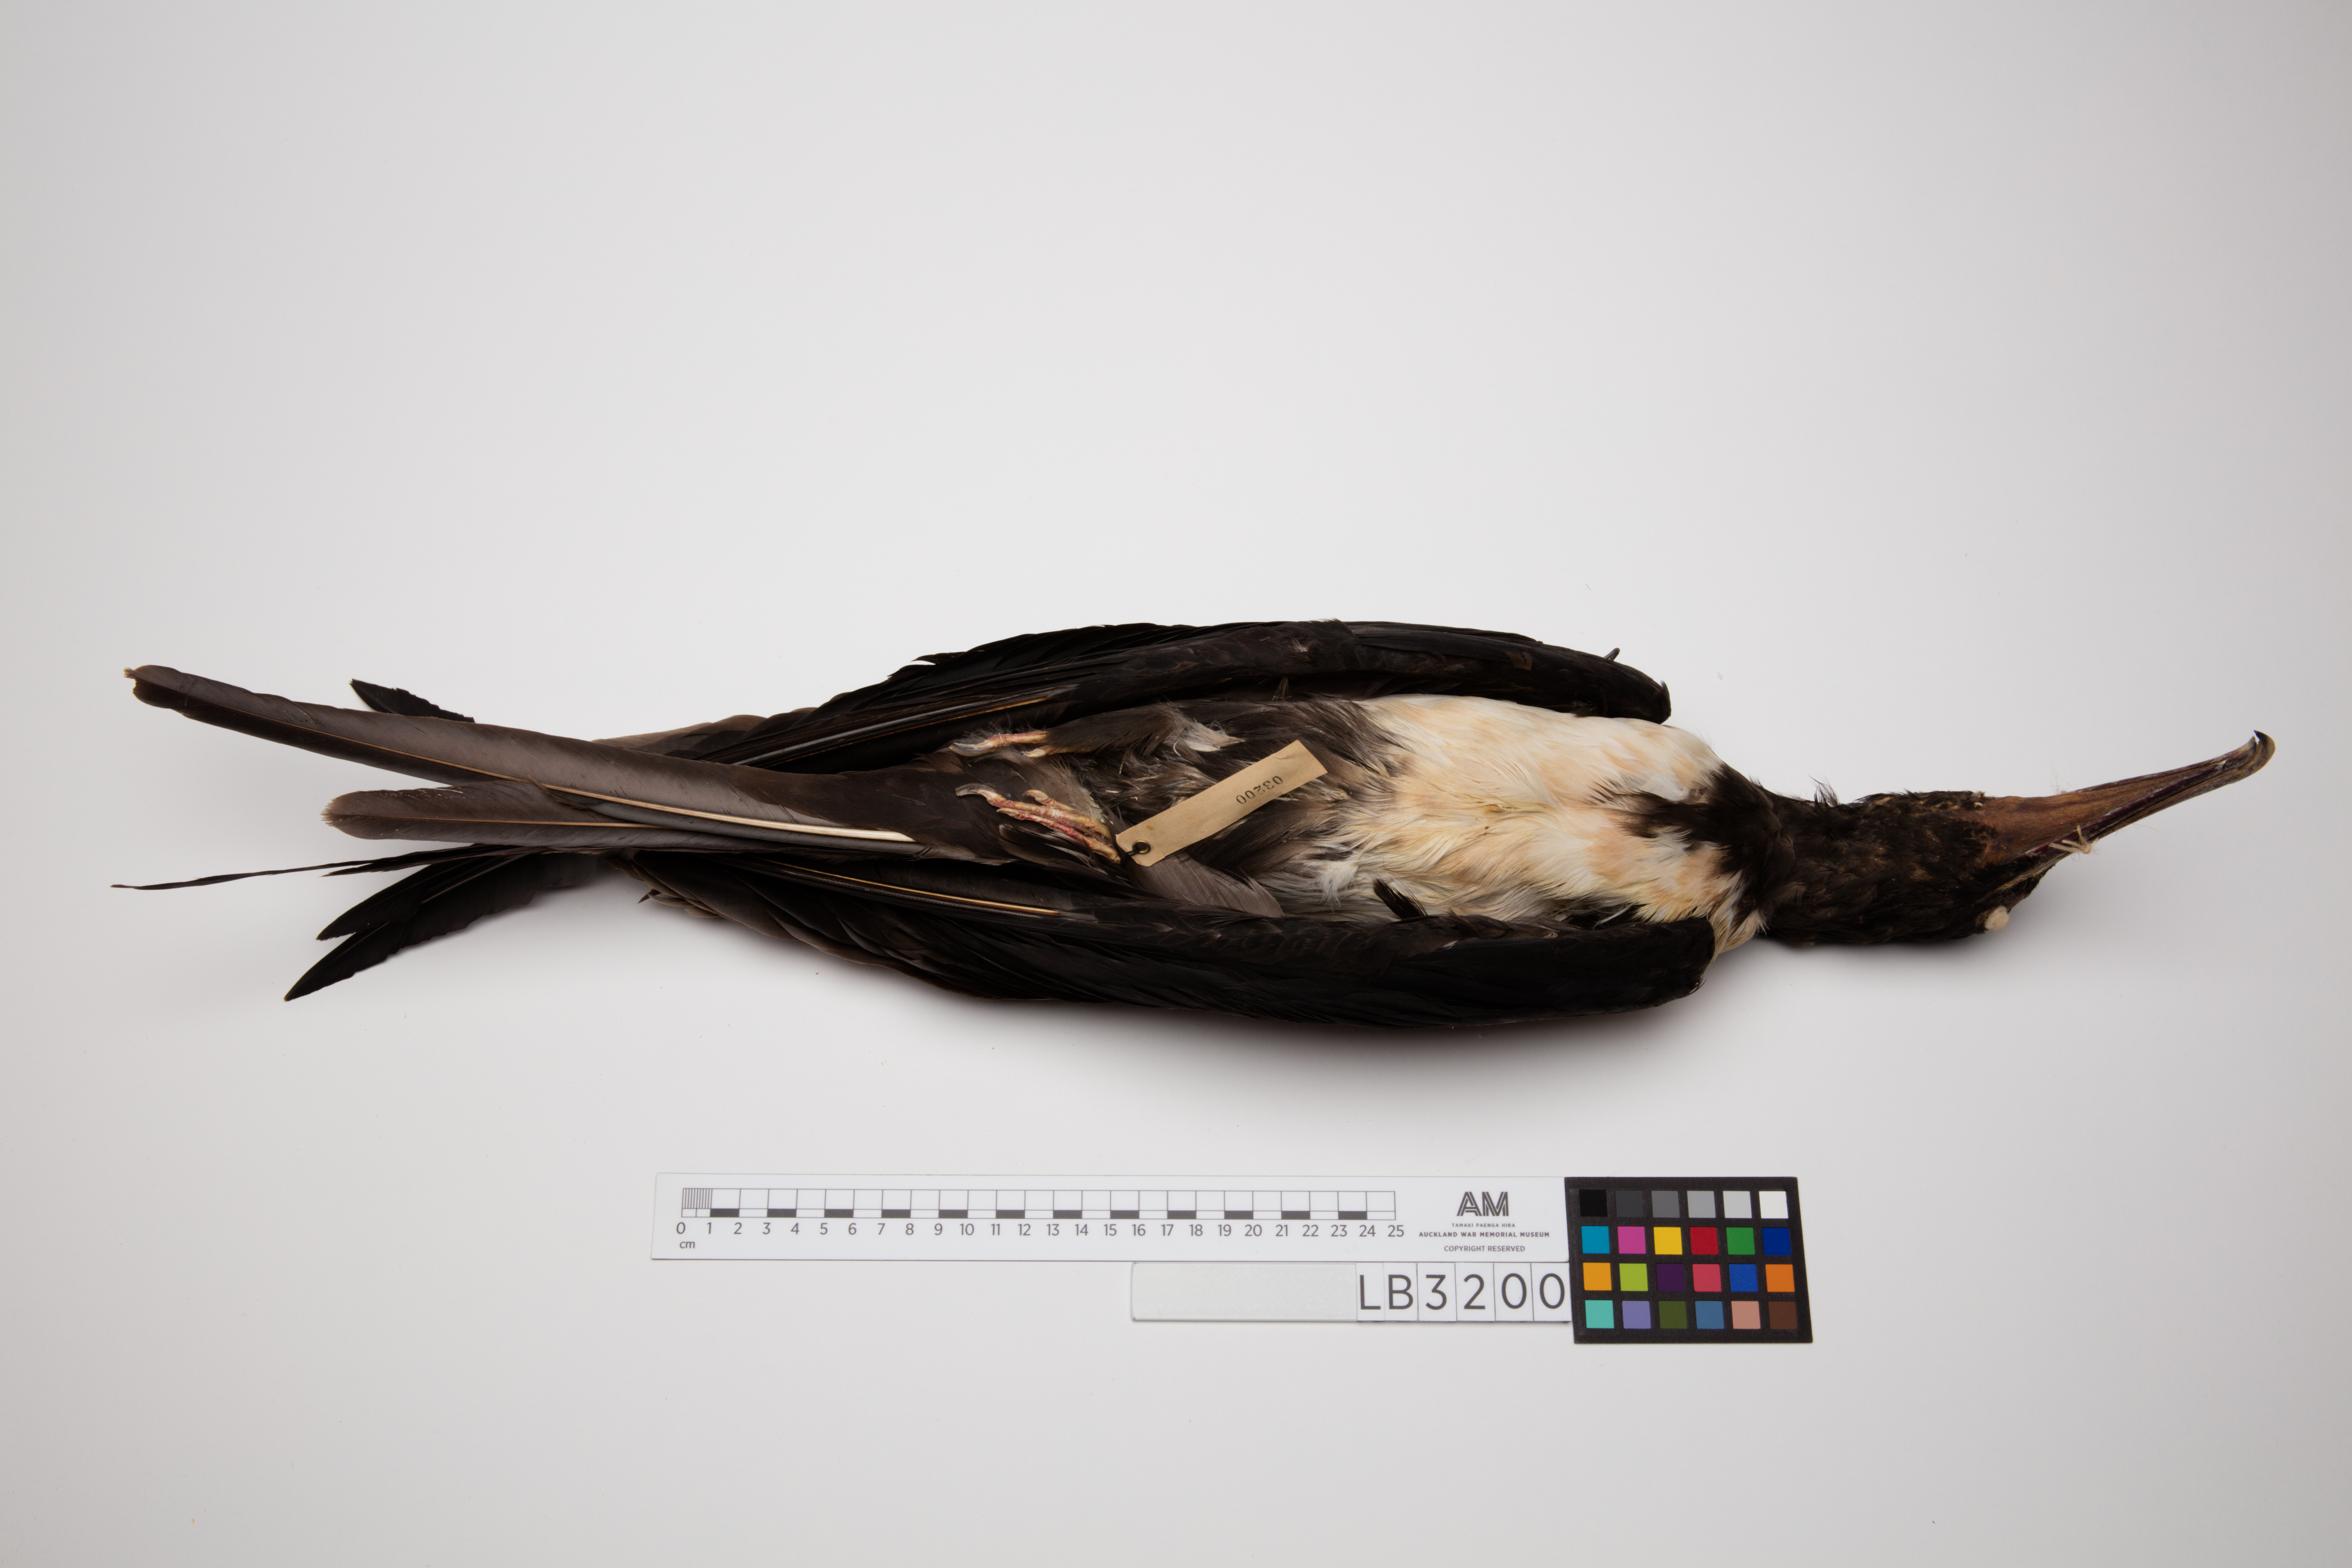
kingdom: Animalia
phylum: Chordata
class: Aves
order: Suliformes
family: Fregatidae
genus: Fregata
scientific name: Fregata ariel
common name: Lesser frigatebird
